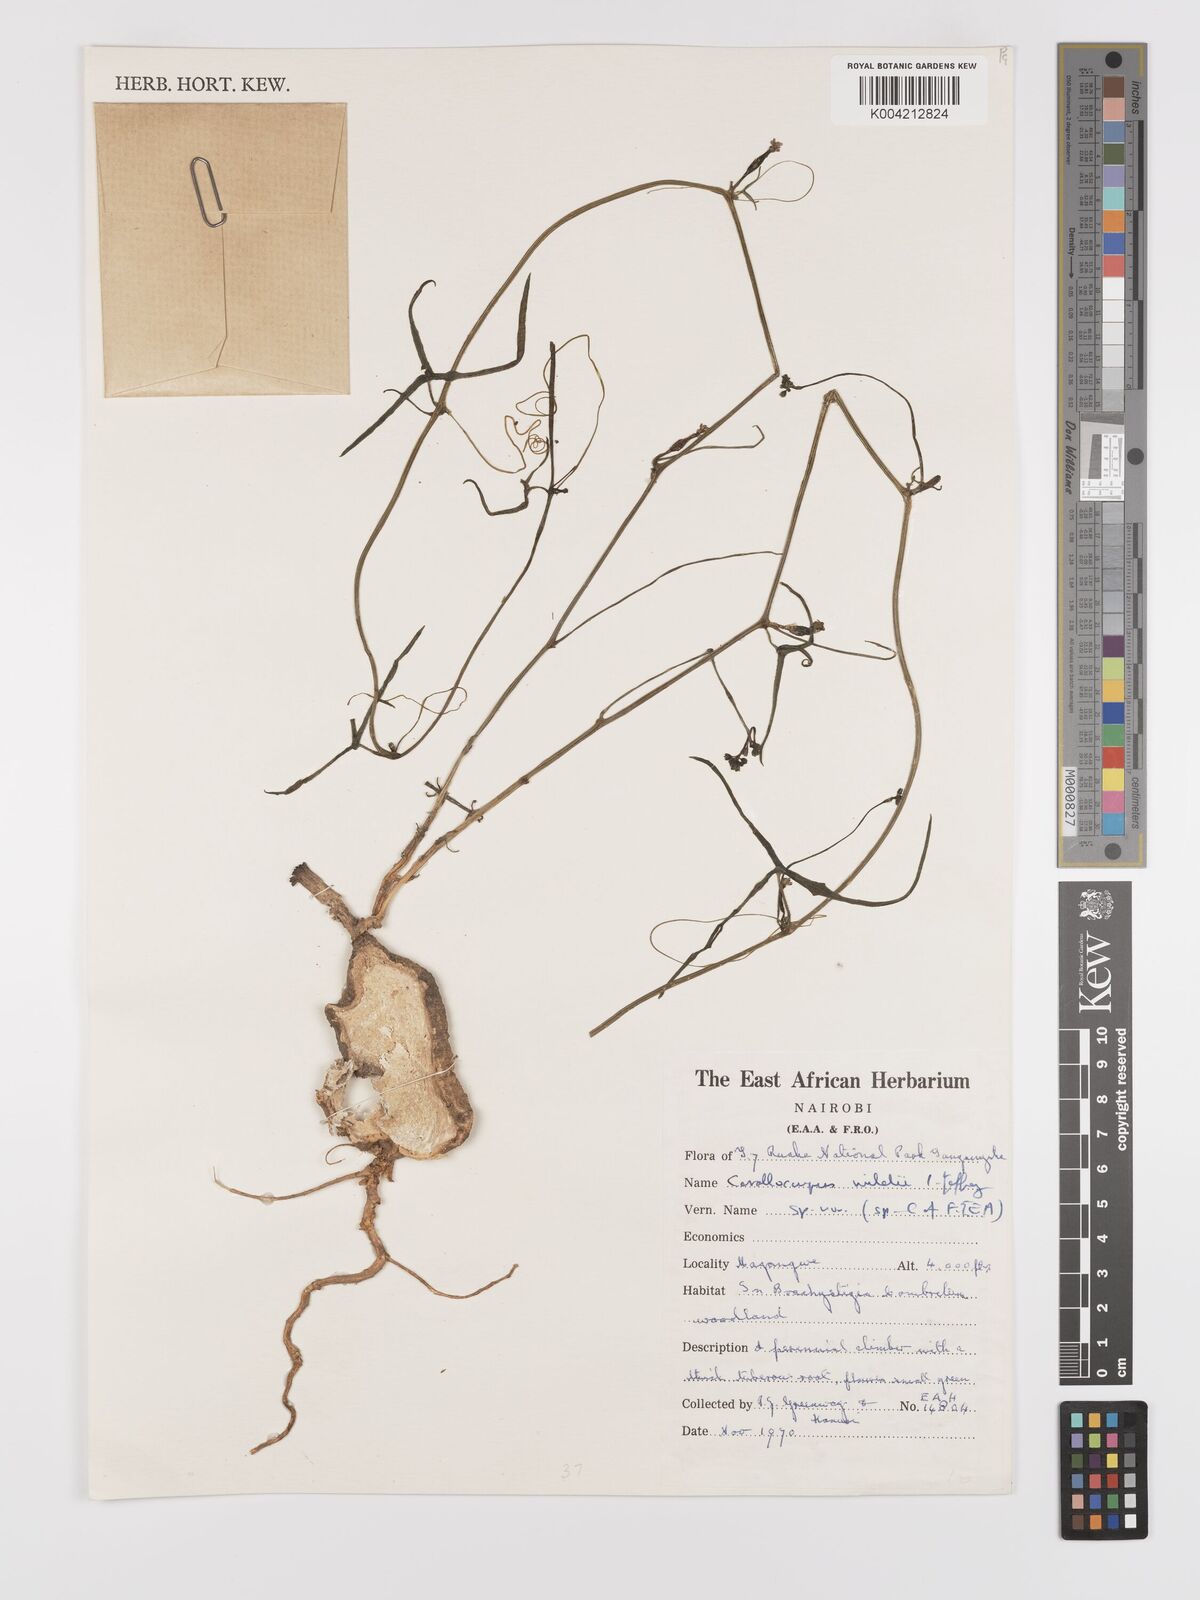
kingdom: Plantae
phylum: Tracheophyta
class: Magnoliopsida
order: Cucurbitales
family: Cucurbitaceae
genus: Corallocarpus
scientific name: Corallocarpus tenuissimus
